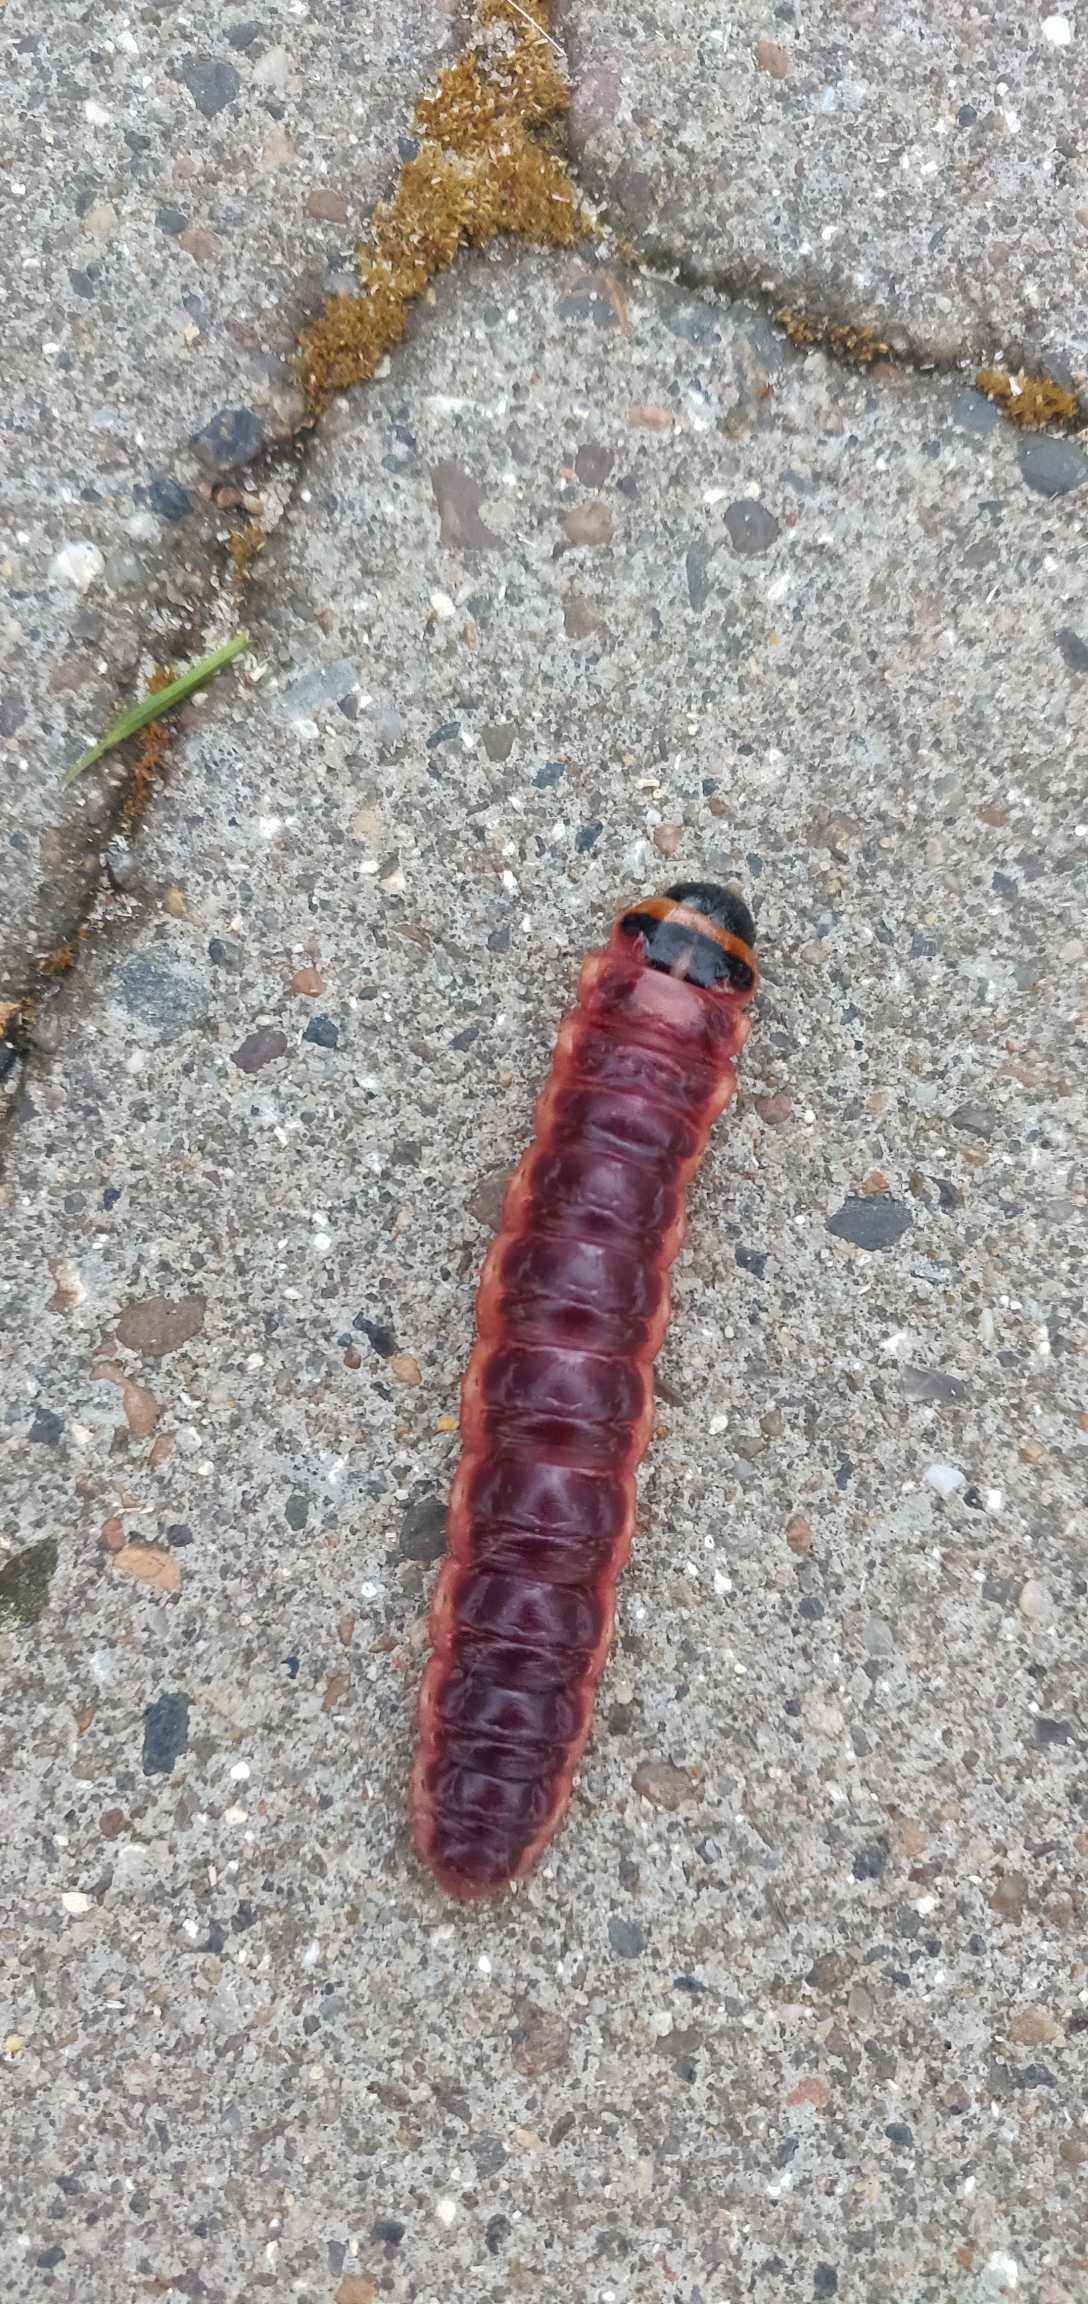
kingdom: Animalia
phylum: Arthropoda
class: Insecta
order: Lepidoptera
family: Cossidae
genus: Cossus
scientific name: Cossus cossus
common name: Pileborer
